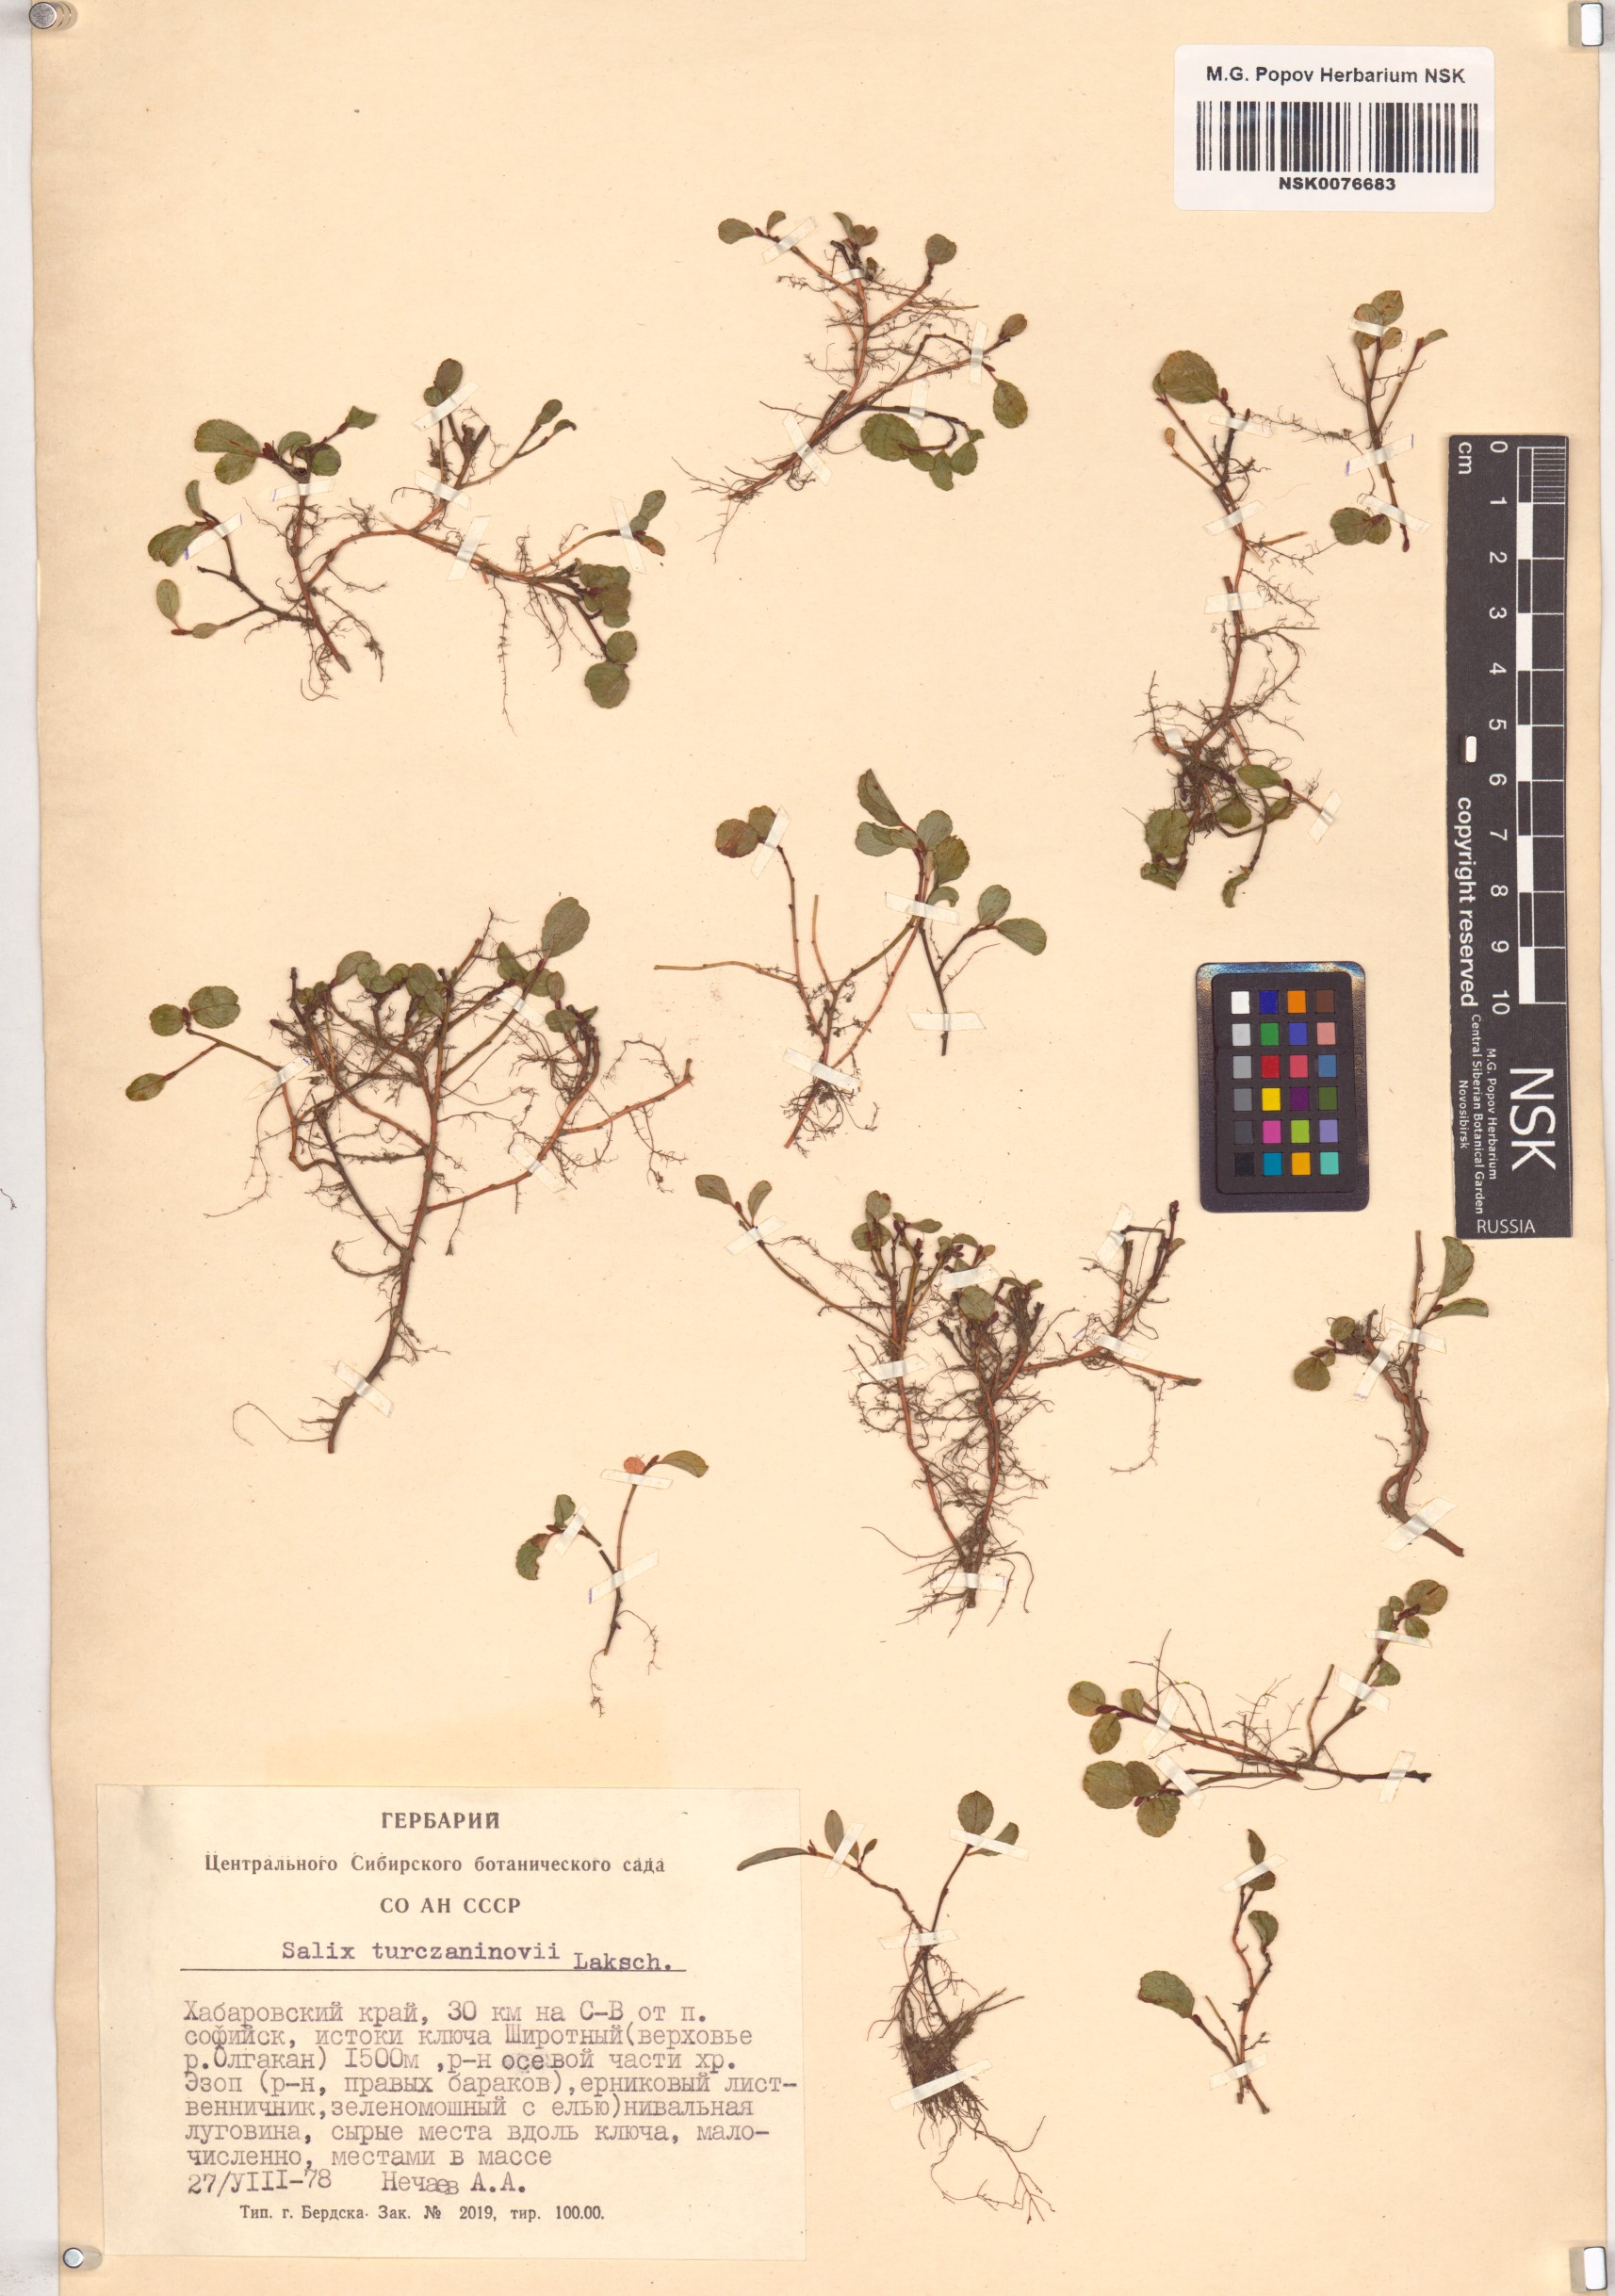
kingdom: Plantae
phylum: Tracheophyta
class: Magnoliopsida
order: Malpighiales
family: Salicaceae
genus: Salix
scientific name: Salix turczaninowii
